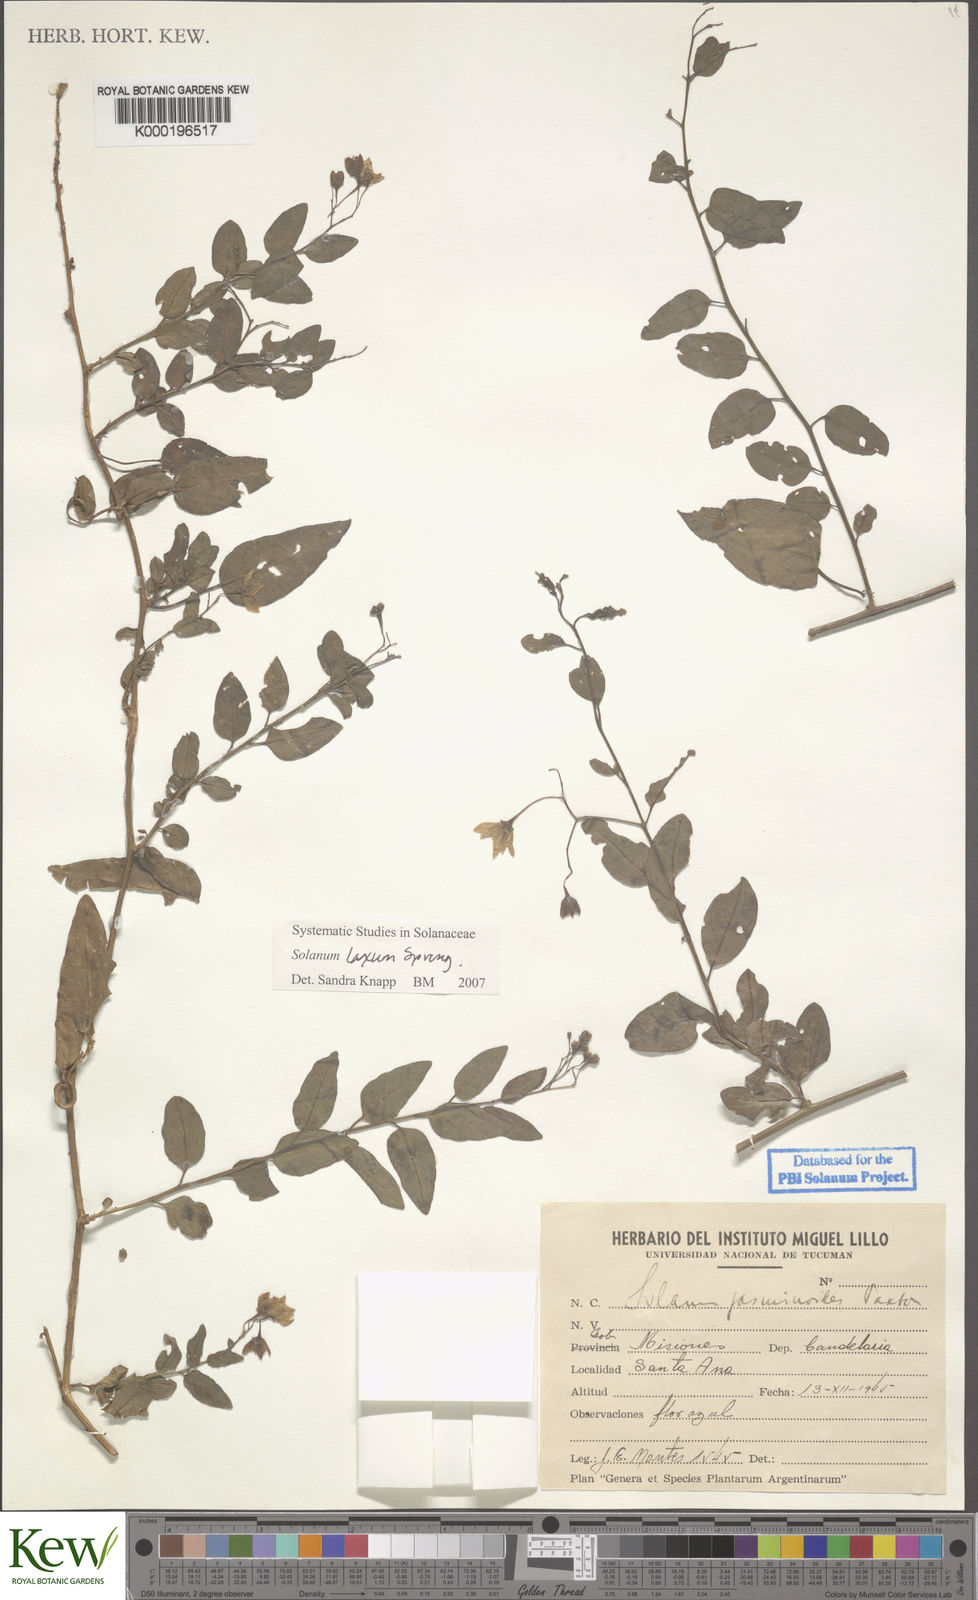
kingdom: Plantae
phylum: Tracheophyta
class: Magnoliopsida
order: Solanales
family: Solanaceae
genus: Solanum
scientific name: Solanum laxum
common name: Nightshade
